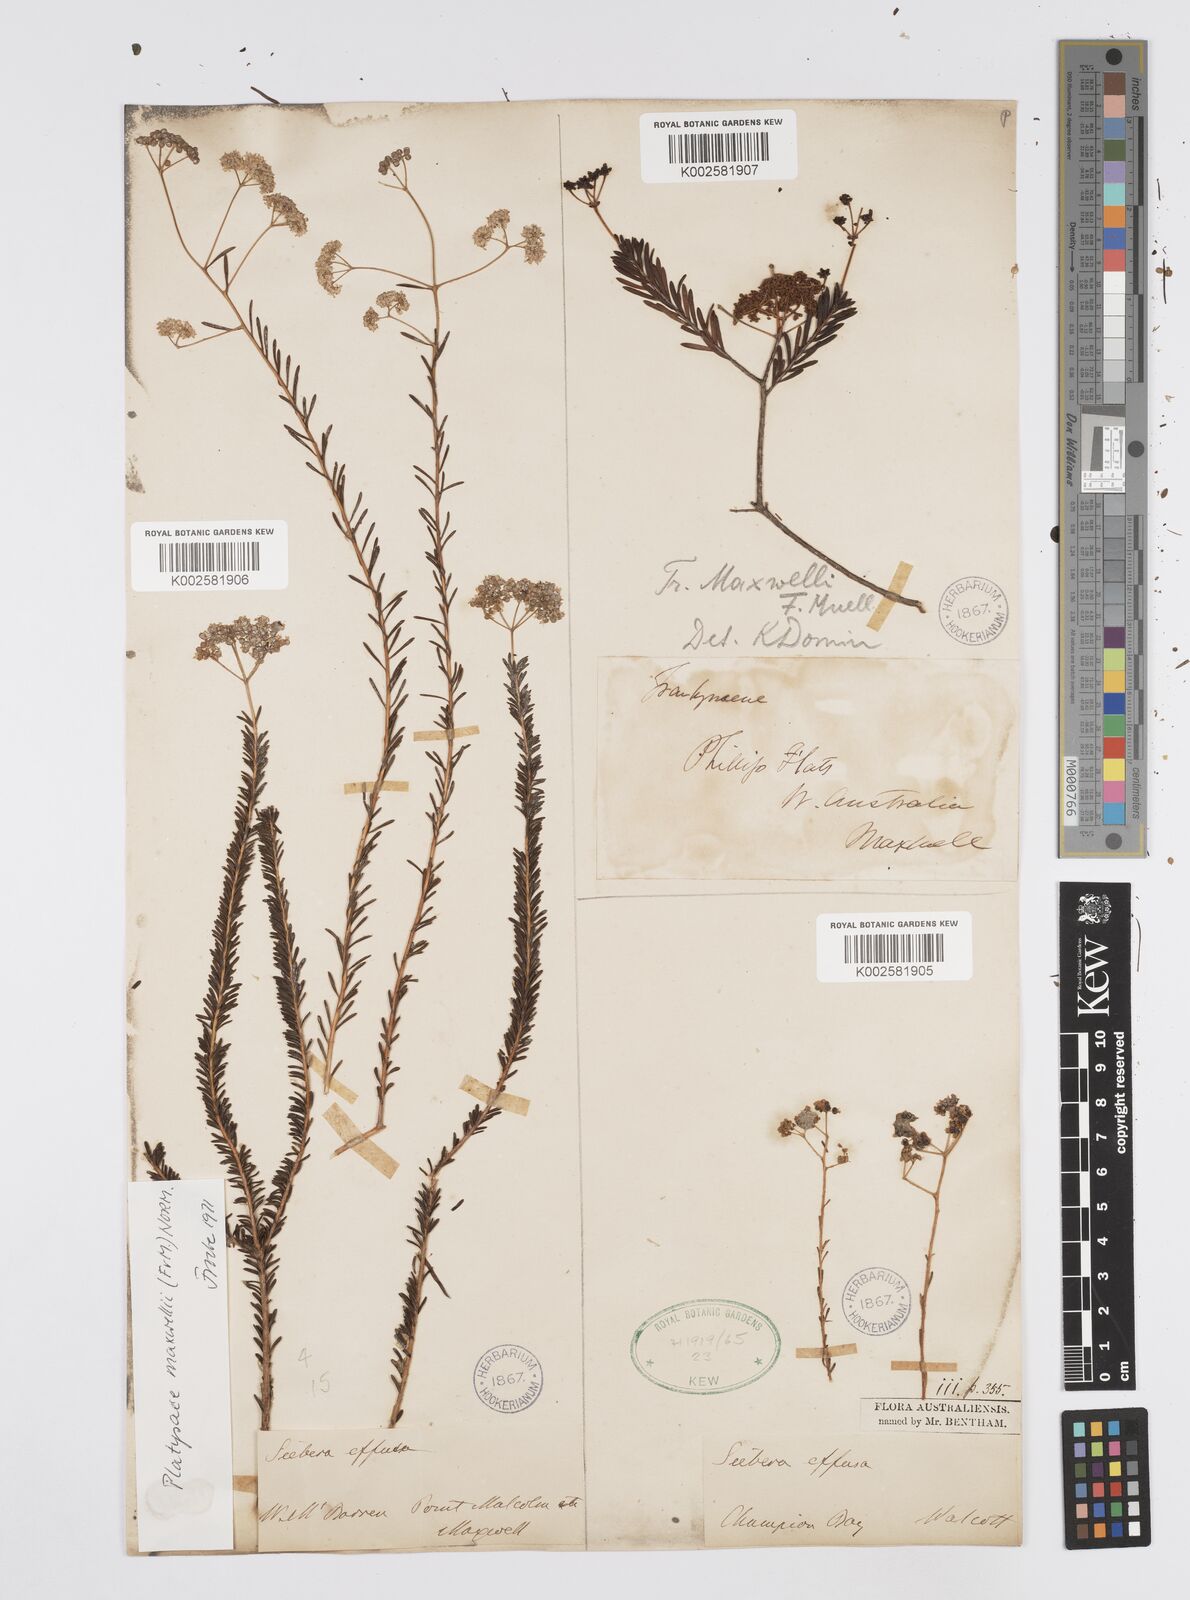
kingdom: Plantae
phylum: Tracheophyta
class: Magnoliopsida
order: Apiales
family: Apiaceae
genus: Platysace
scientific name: Platysace maxwellii
